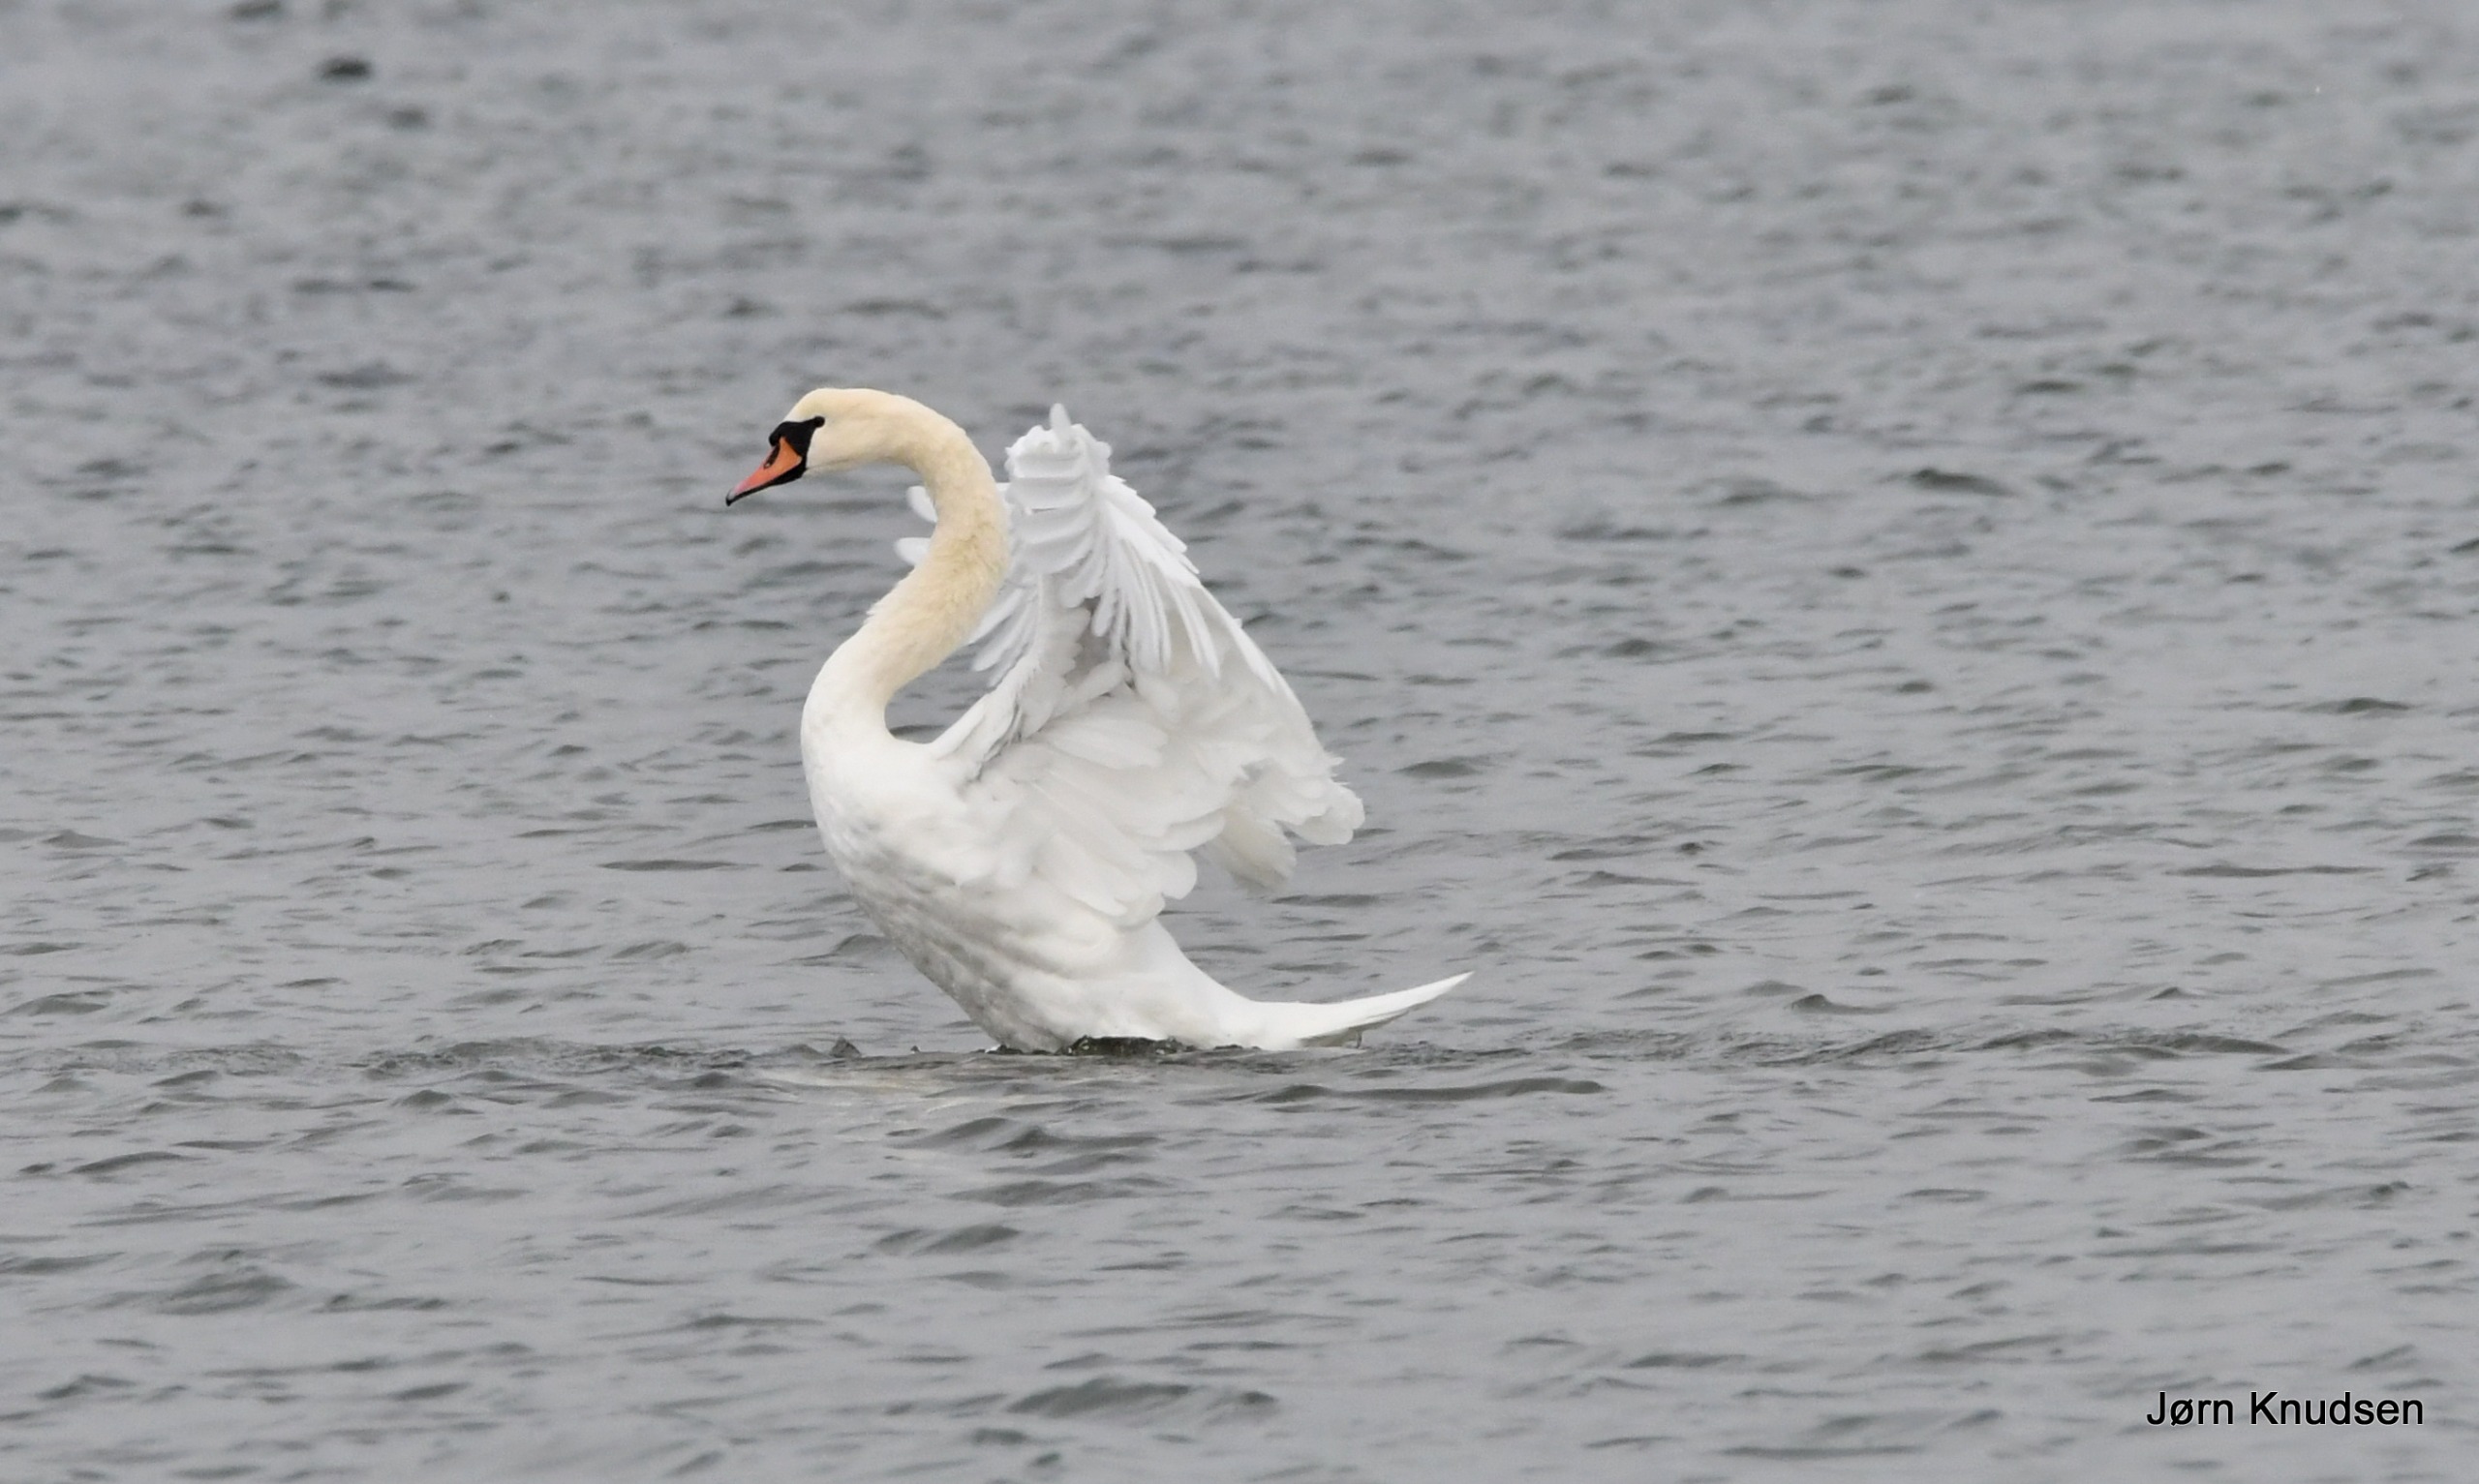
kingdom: Animalia
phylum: Chordata
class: Aves
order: Anseriformes
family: Anatidae
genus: Cygnus
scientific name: Cygnus olor
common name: Knopsvane
